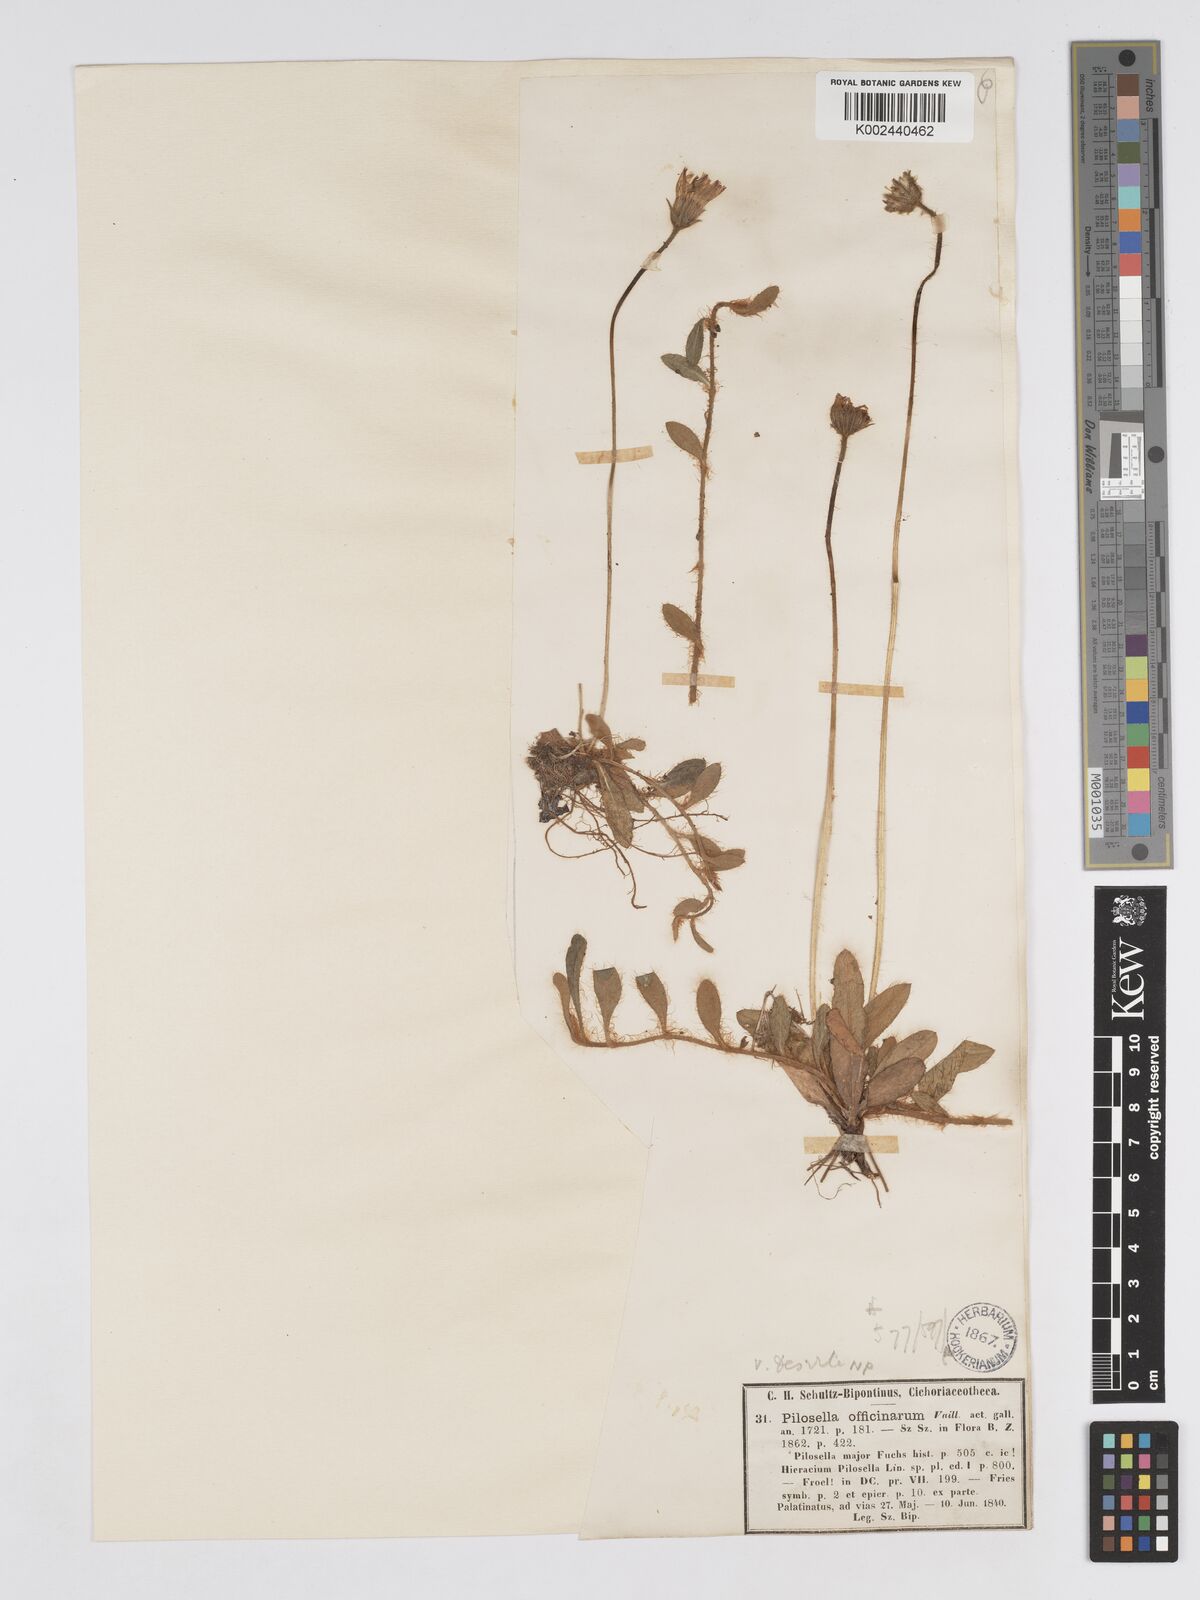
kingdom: Plantae
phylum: Tracheophyta
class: Magnoliopsida
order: Asterales
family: Asteraceae
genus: Pilosella
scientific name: Pilosella officinarum
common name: Mouse-ear hawkweed
